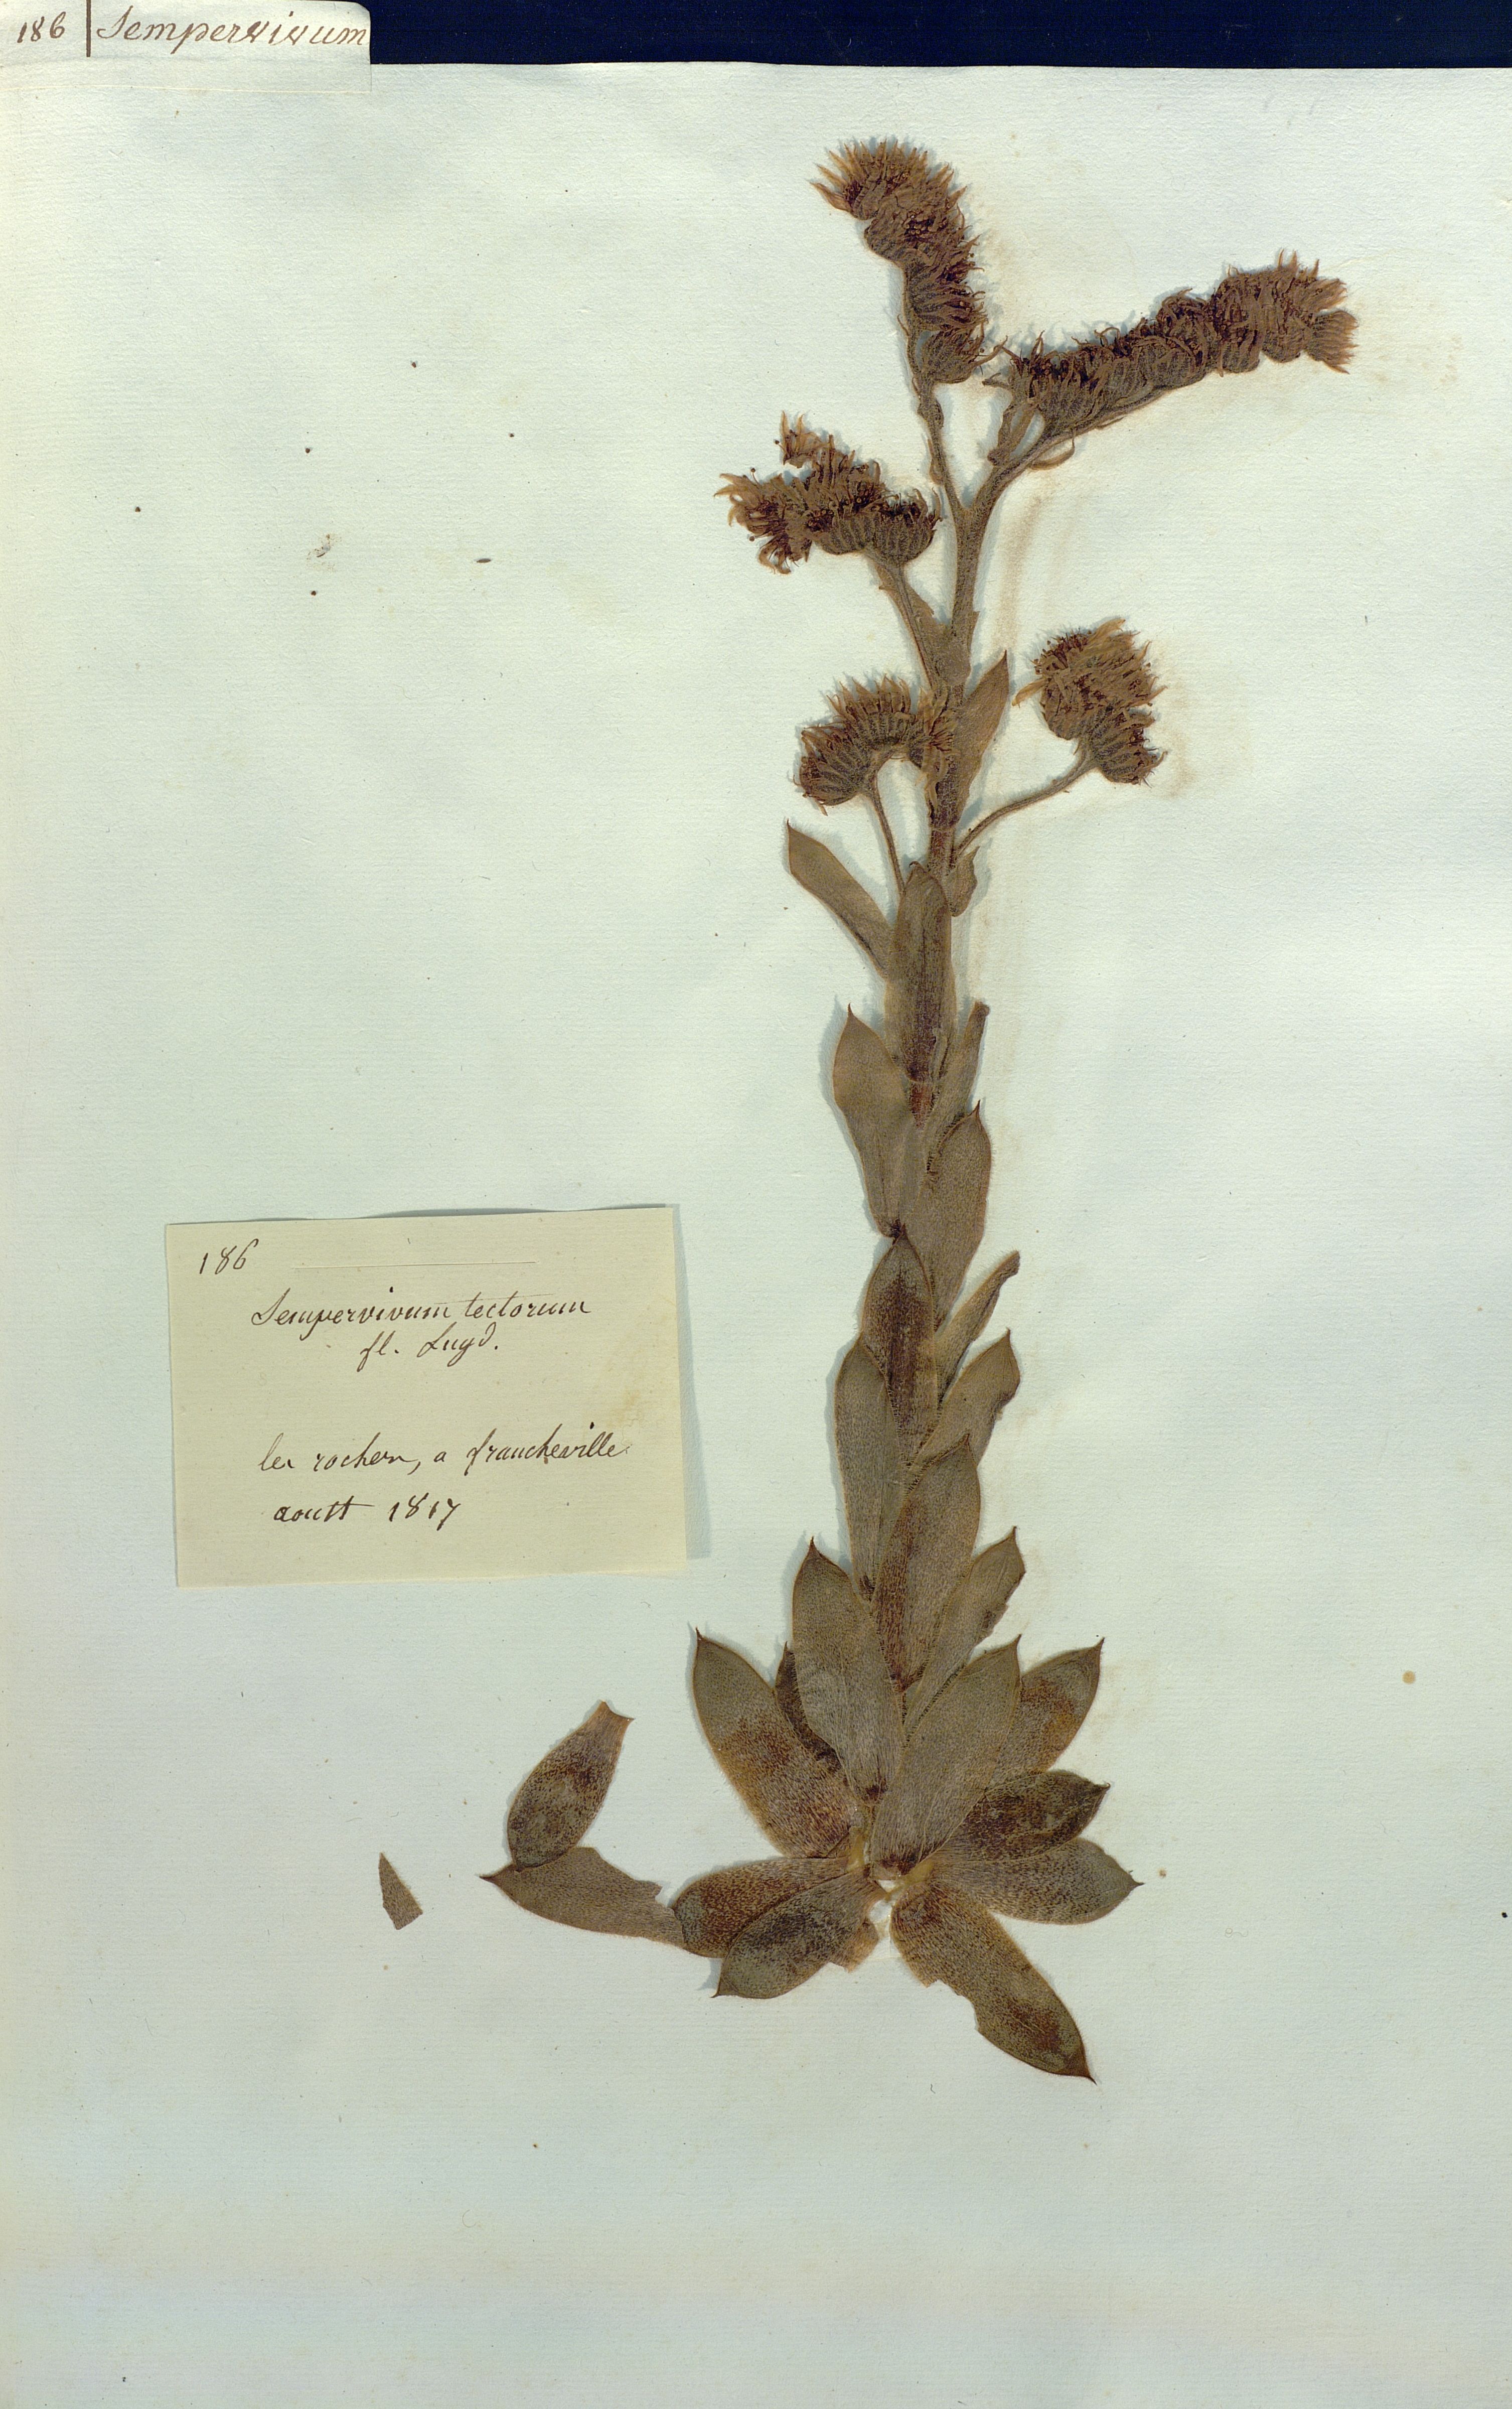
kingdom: Plantae
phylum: Tracheophyta
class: Magnoliopsida
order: Saxifragales
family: Crassulaceae
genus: Sempervivum
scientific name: Sempervivum tectorum
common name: House-leek
